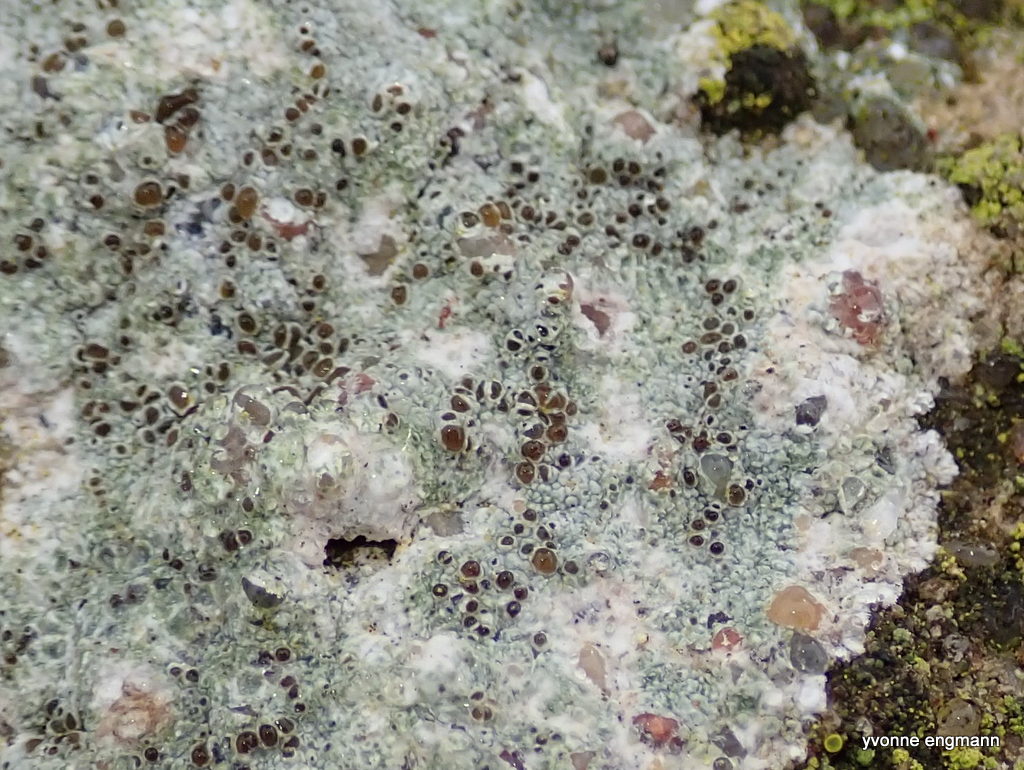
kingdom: Fungi
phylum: Ascomycota
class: Lecanoromycetes
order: Lecanorales
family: Lecanoraceae
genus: Lecanora
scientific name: Lecanora campestris
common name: mur-kantskivelav
